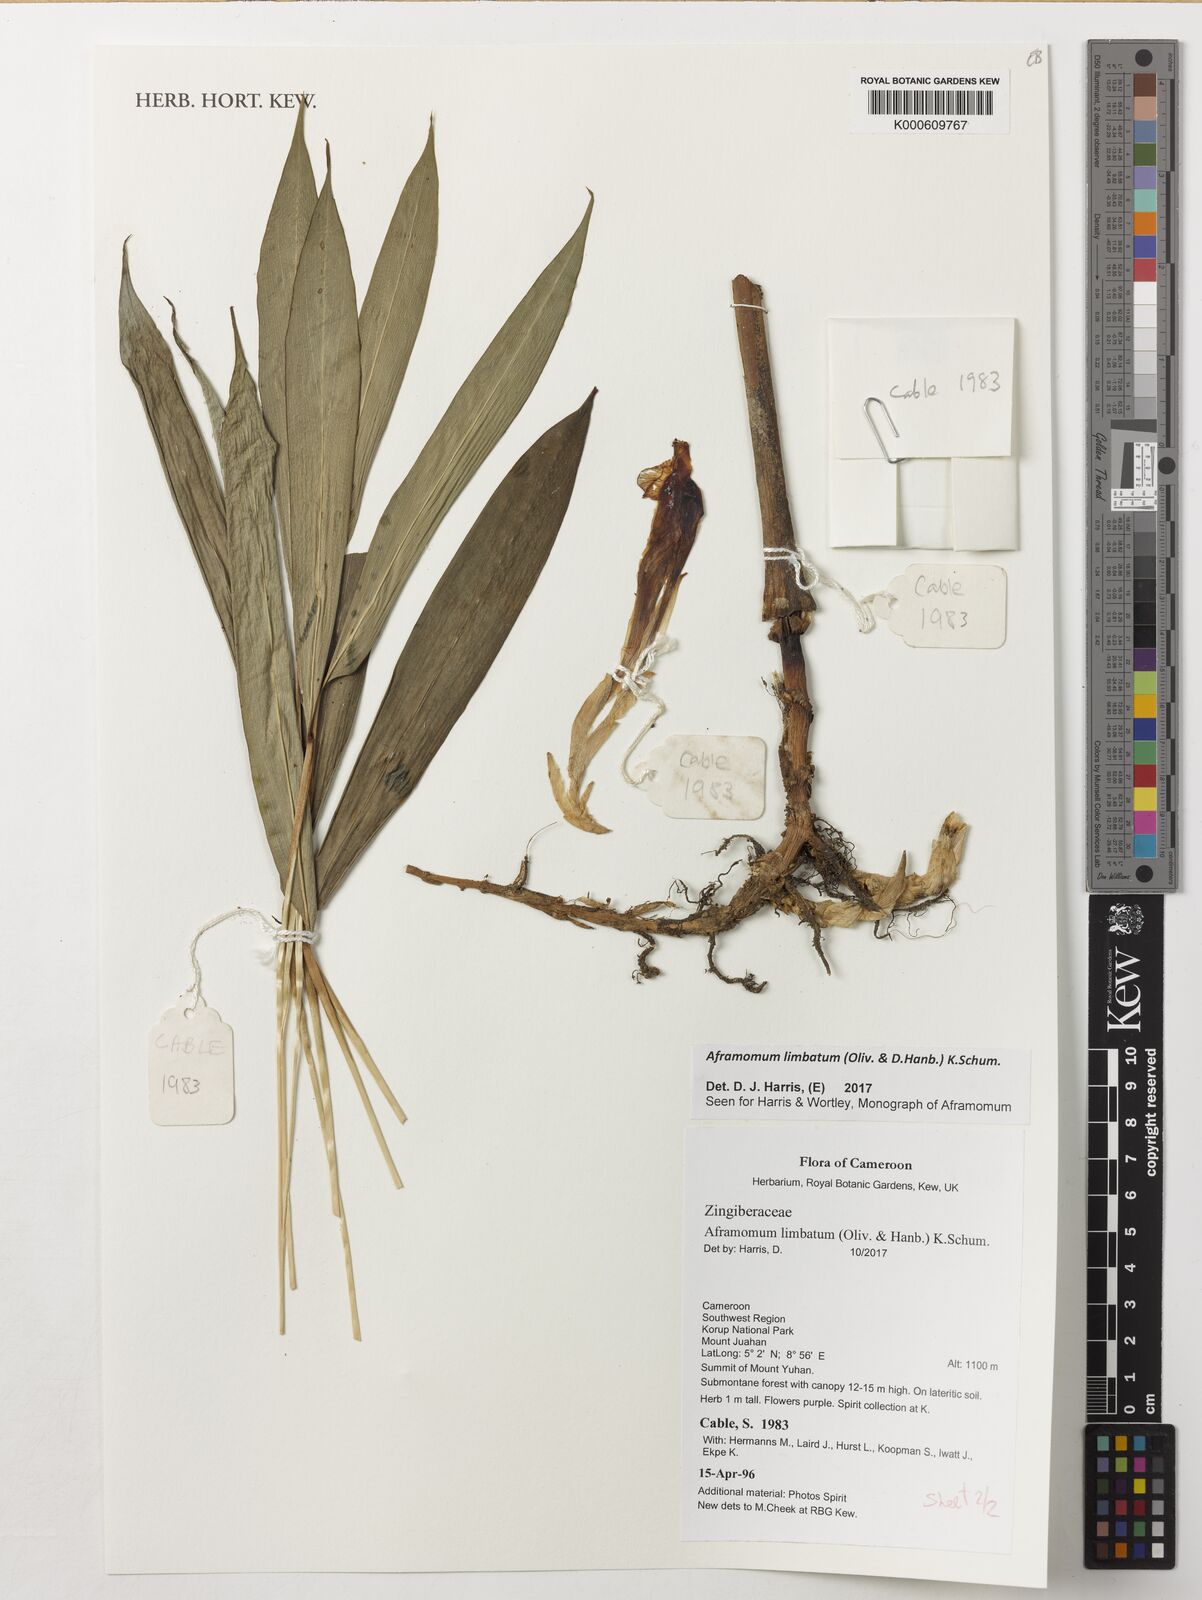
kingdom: Plantae
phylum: Tracheophyta
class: Liliopsida
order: Zingiberales
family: Zingiberaceae
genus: Aframomum
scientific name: Aframomum limbatum
